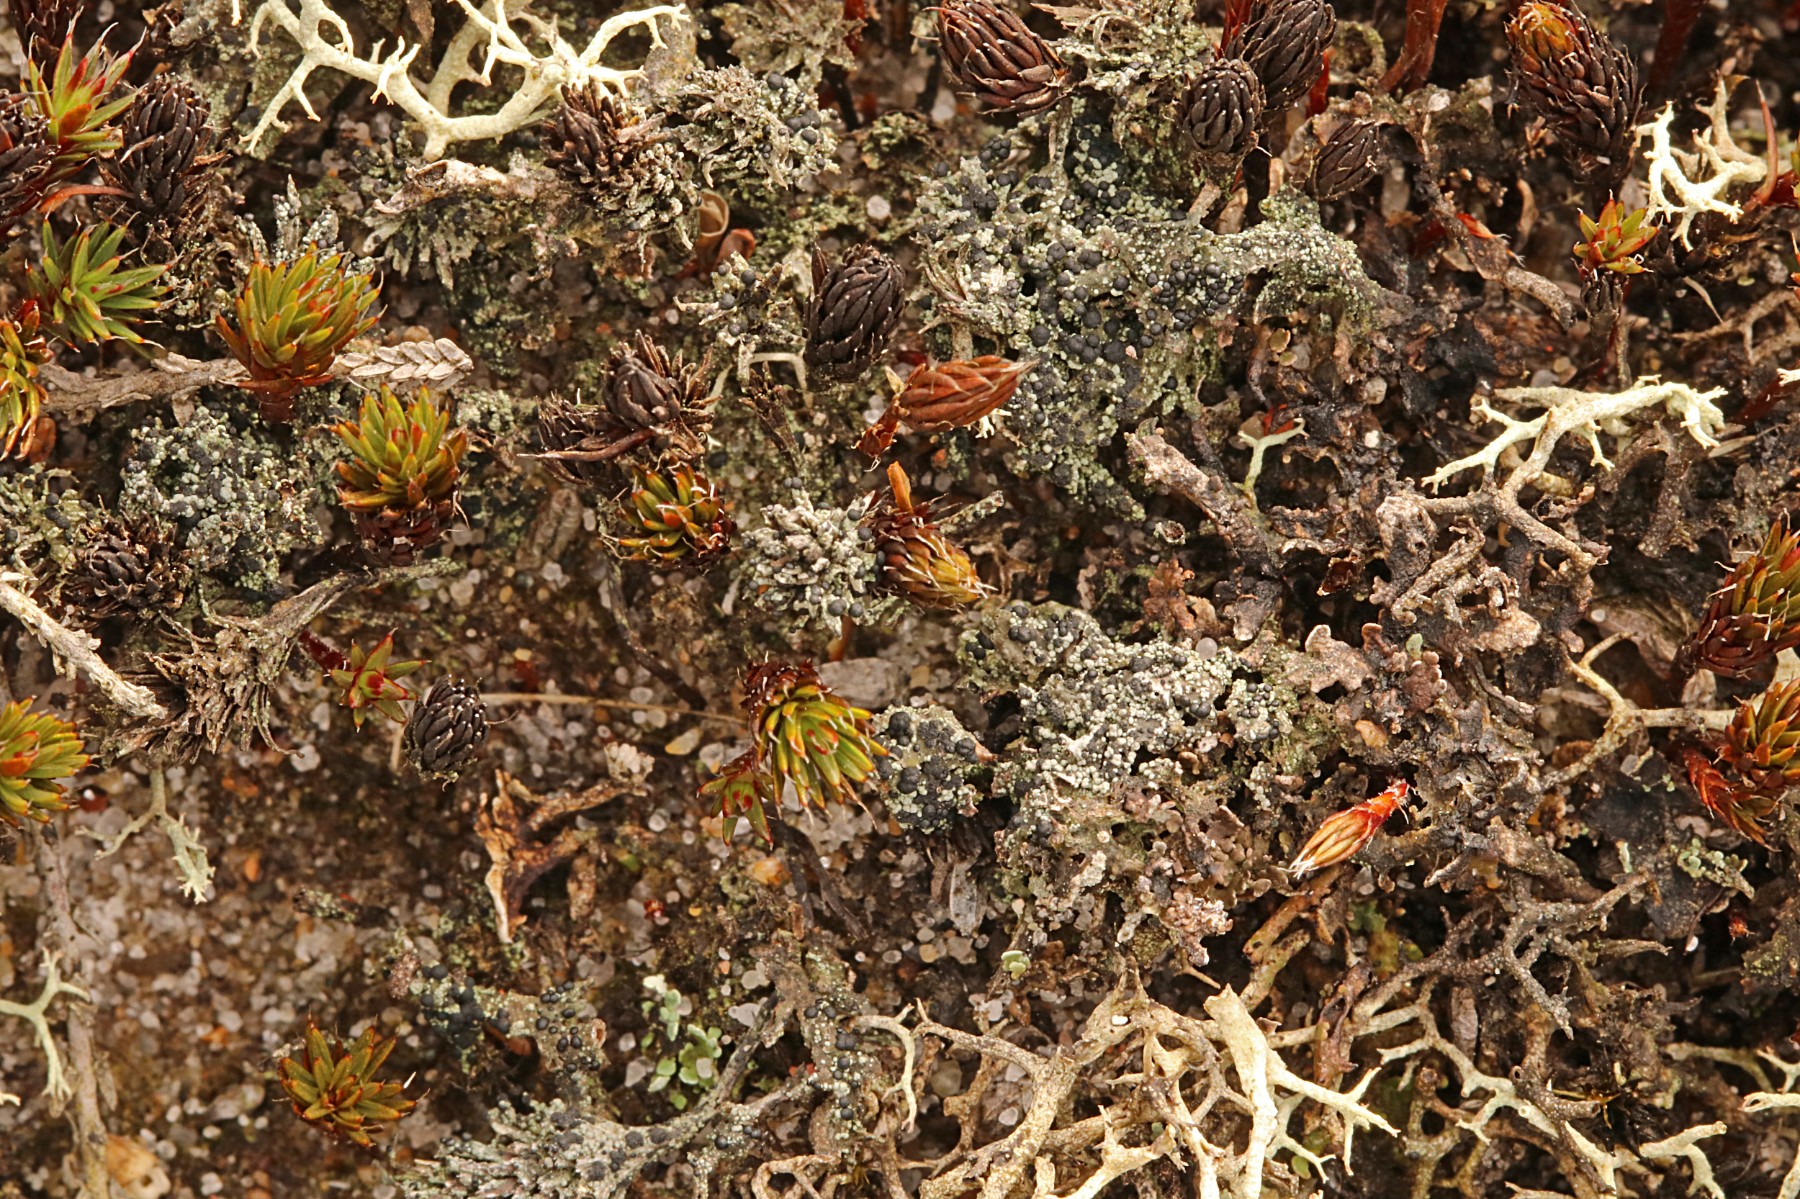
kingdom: Fungi
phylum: Ascomycota
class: Lecanoromycetes
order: Lecanorales
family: Byssolomataceae
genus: Micarea
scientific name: Micarea lignaria
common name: tørve-knaplav
